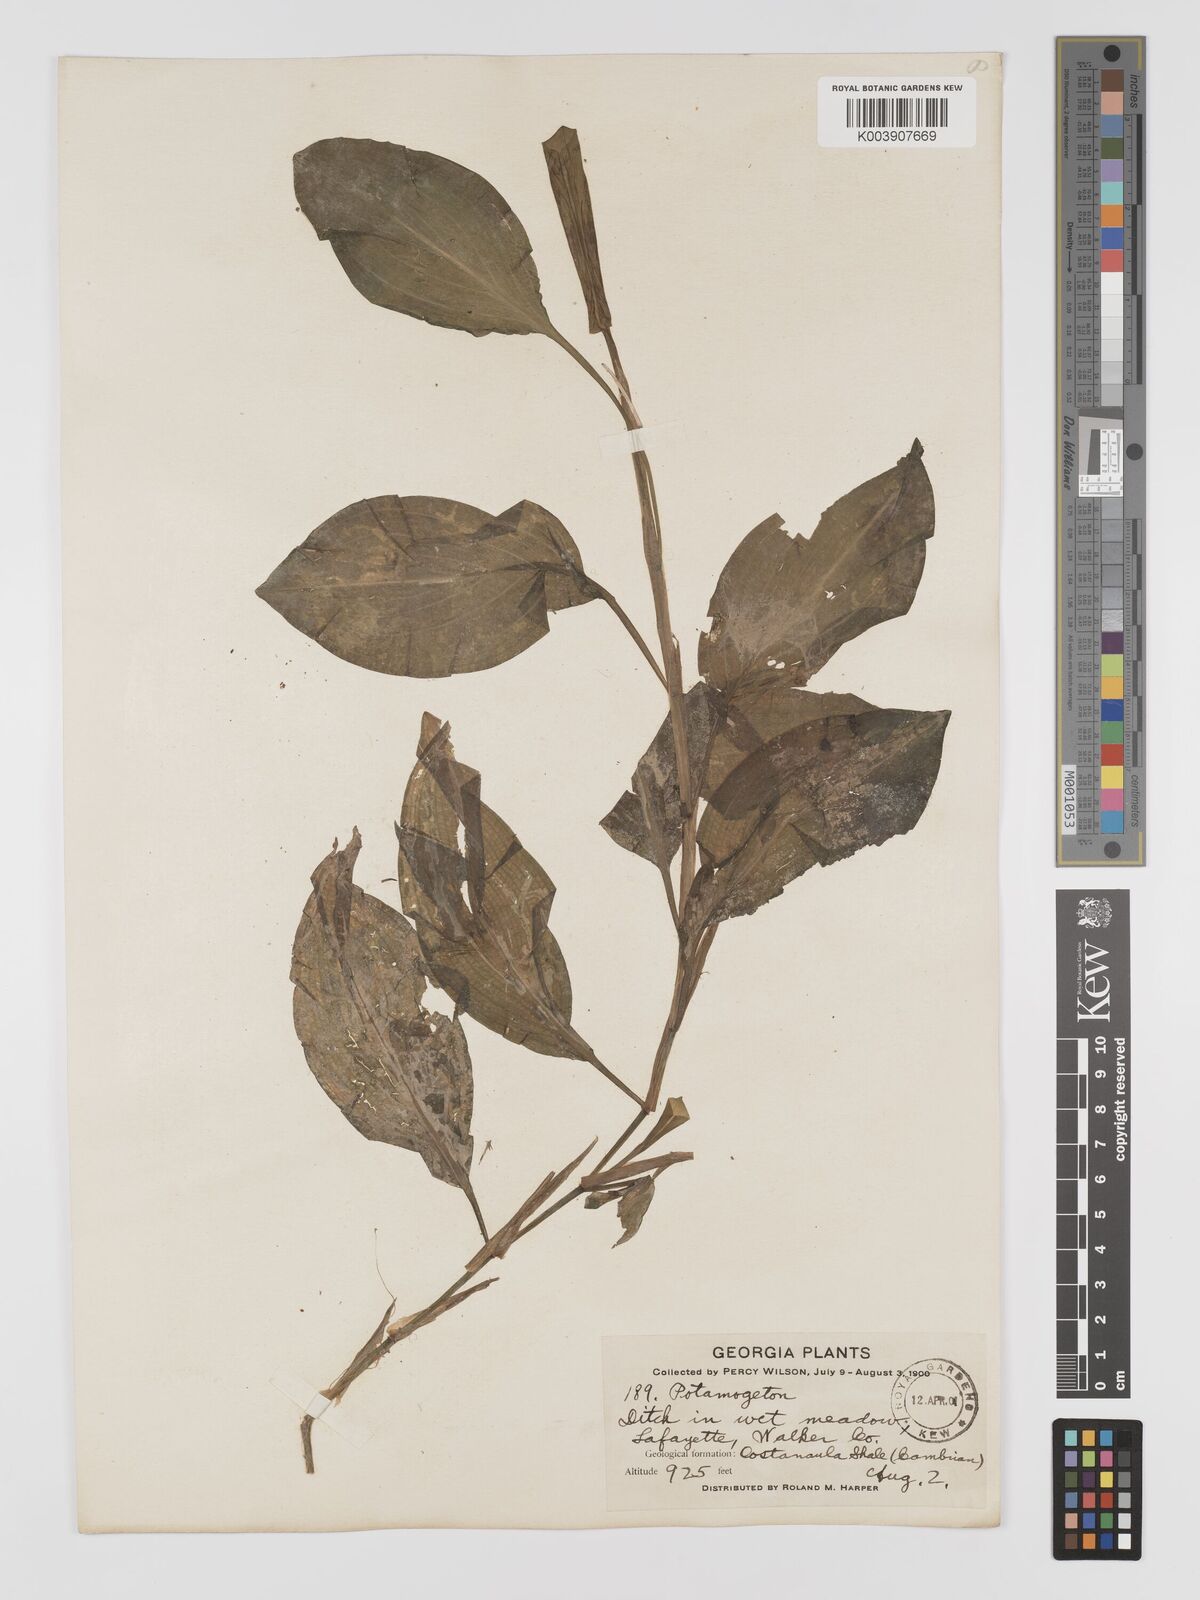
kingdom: Plantae
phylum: Tracheophyta
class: Liliopsida
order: Alismatales
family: Potamogetonaceae
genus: Potamogeton
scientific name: Potamogeton amplifolius
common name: Broad-leaved pondweed
